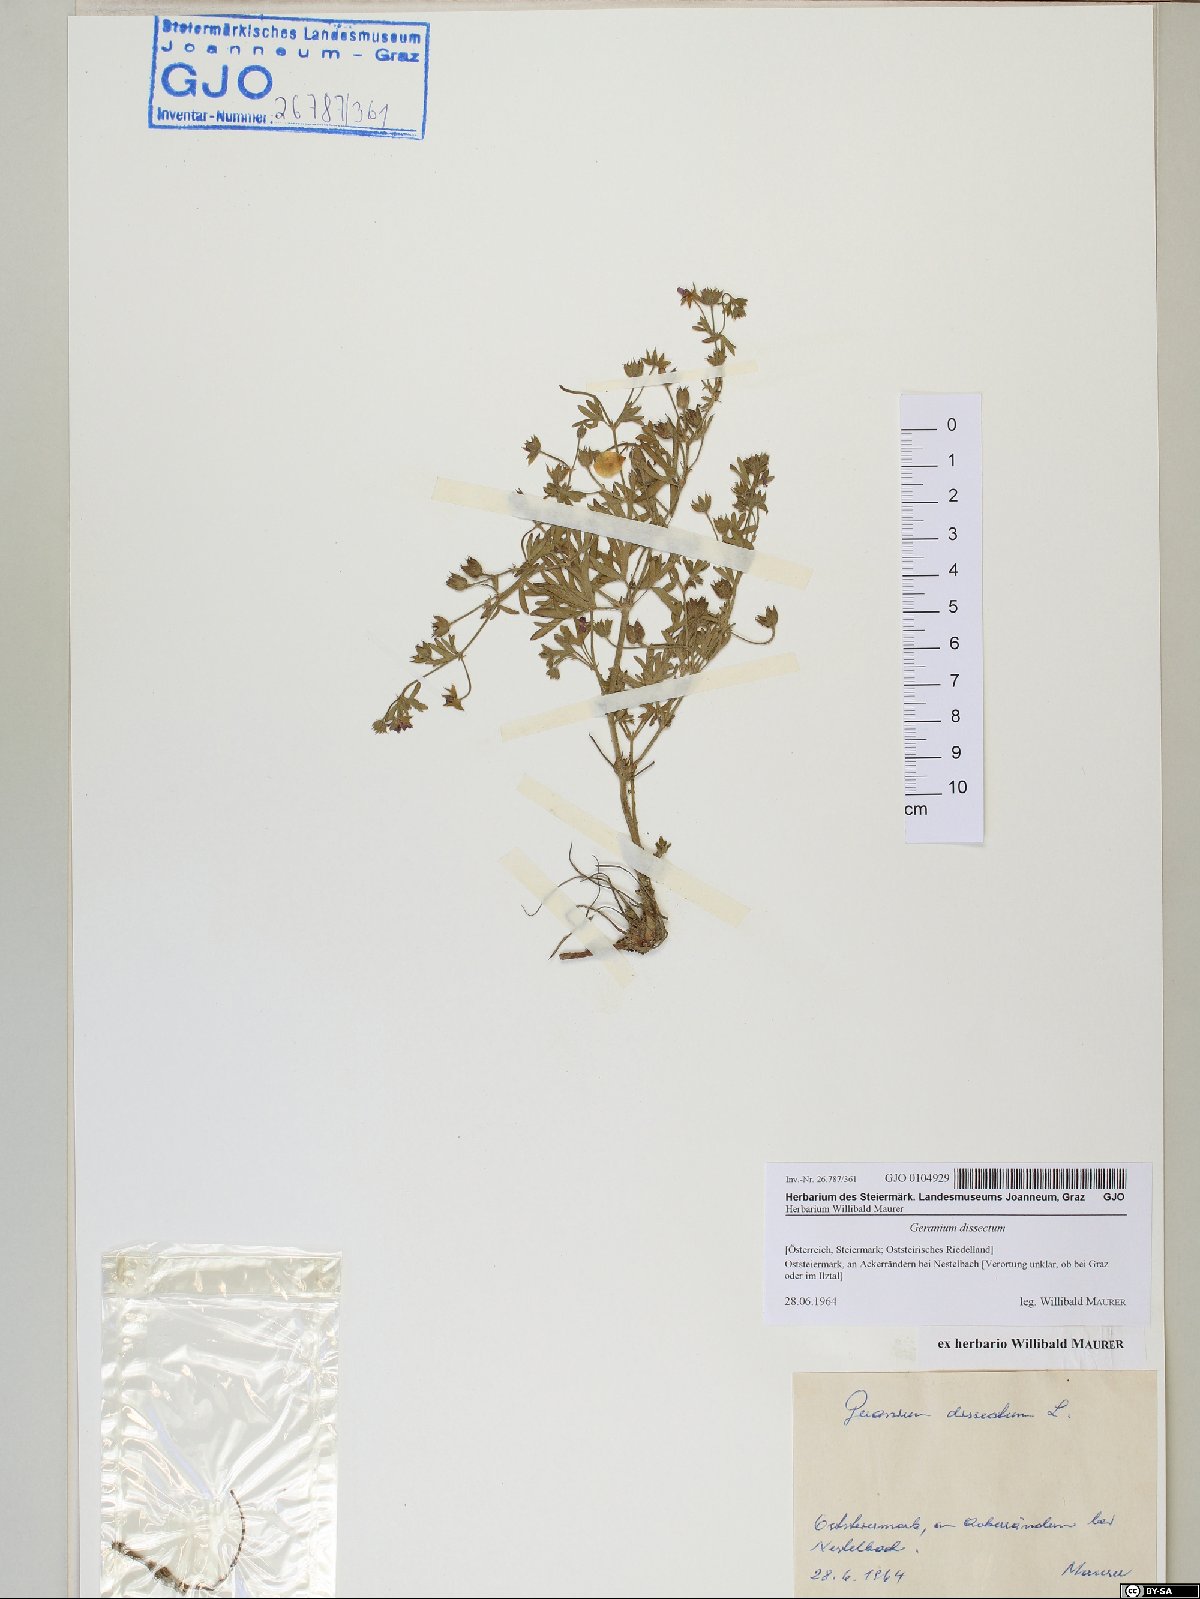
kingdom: Plantae
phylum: Tracheophyta
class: Magnoliopsida
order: Geraniales
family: Geraniaceae
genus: Geranium
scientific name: Geranium dissectum
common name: Cut-leaved crane's-bill
